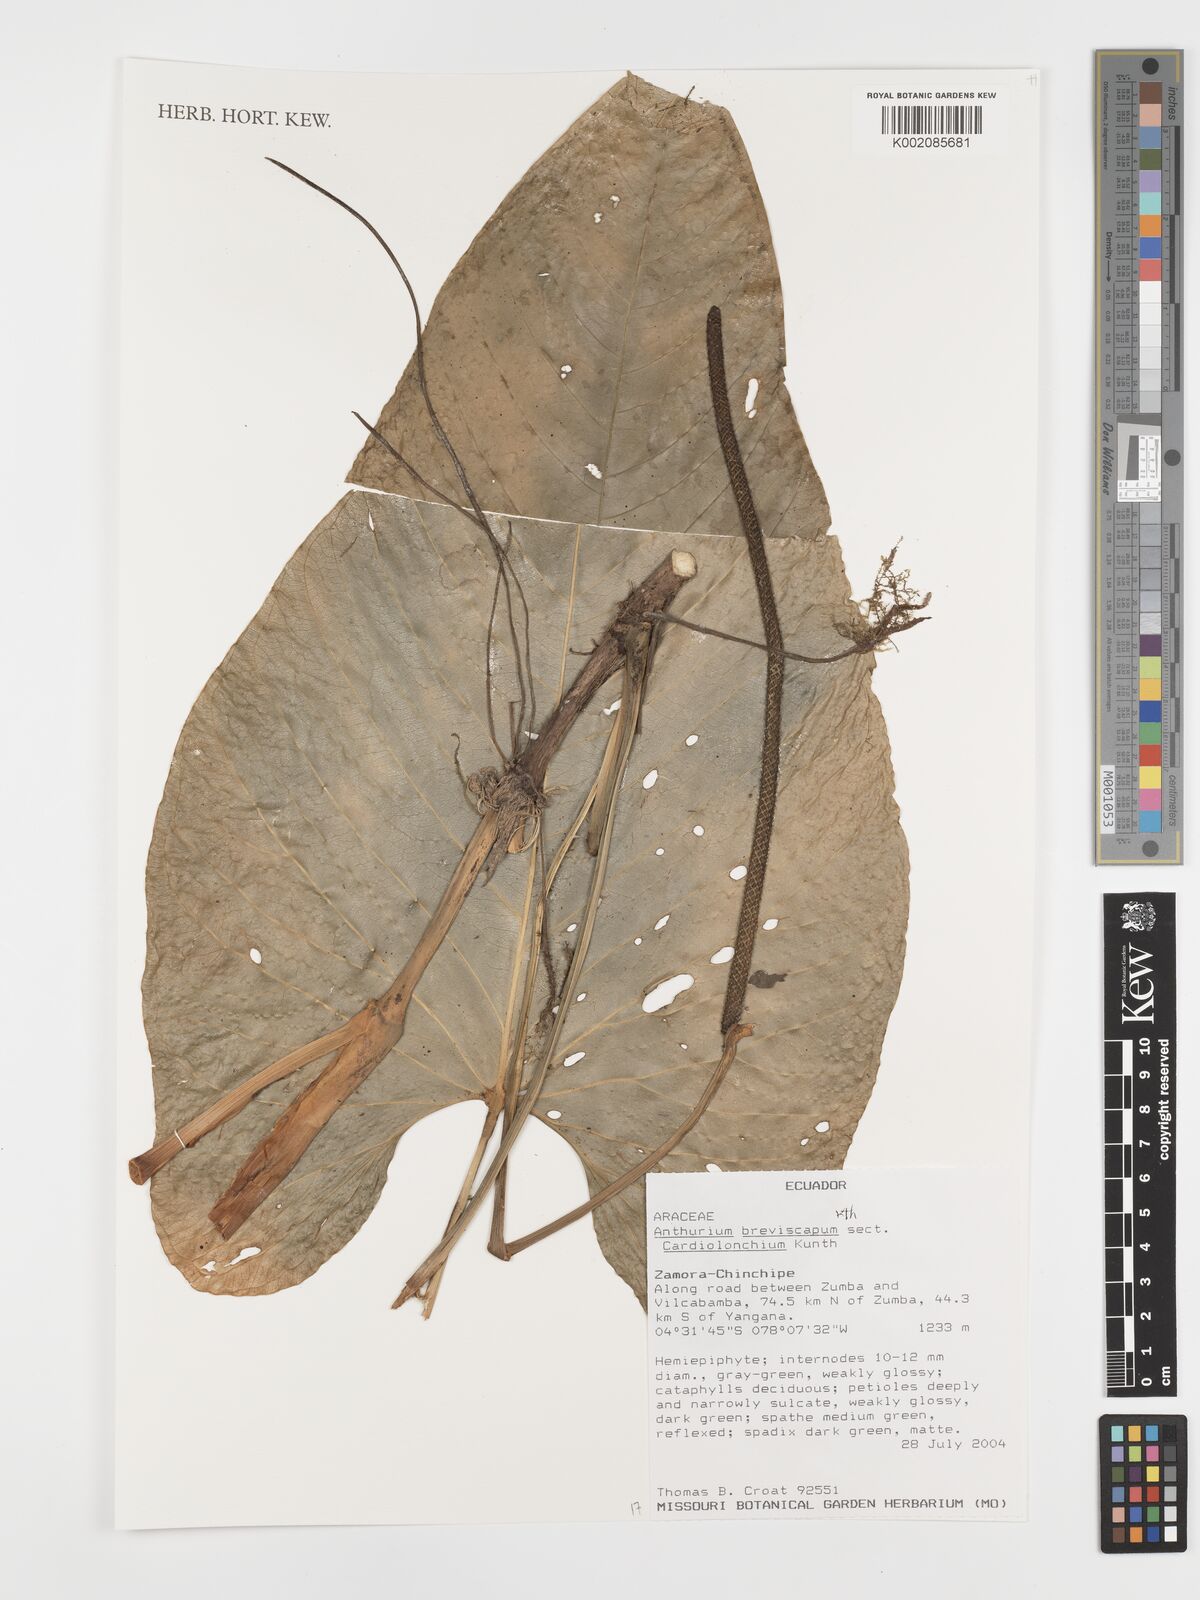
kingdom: Plantae
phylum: Tracheophyta
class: Liliopsida
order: Alismatales
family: Araceae
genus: Anthurium
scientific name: Anthurium breviscapum
